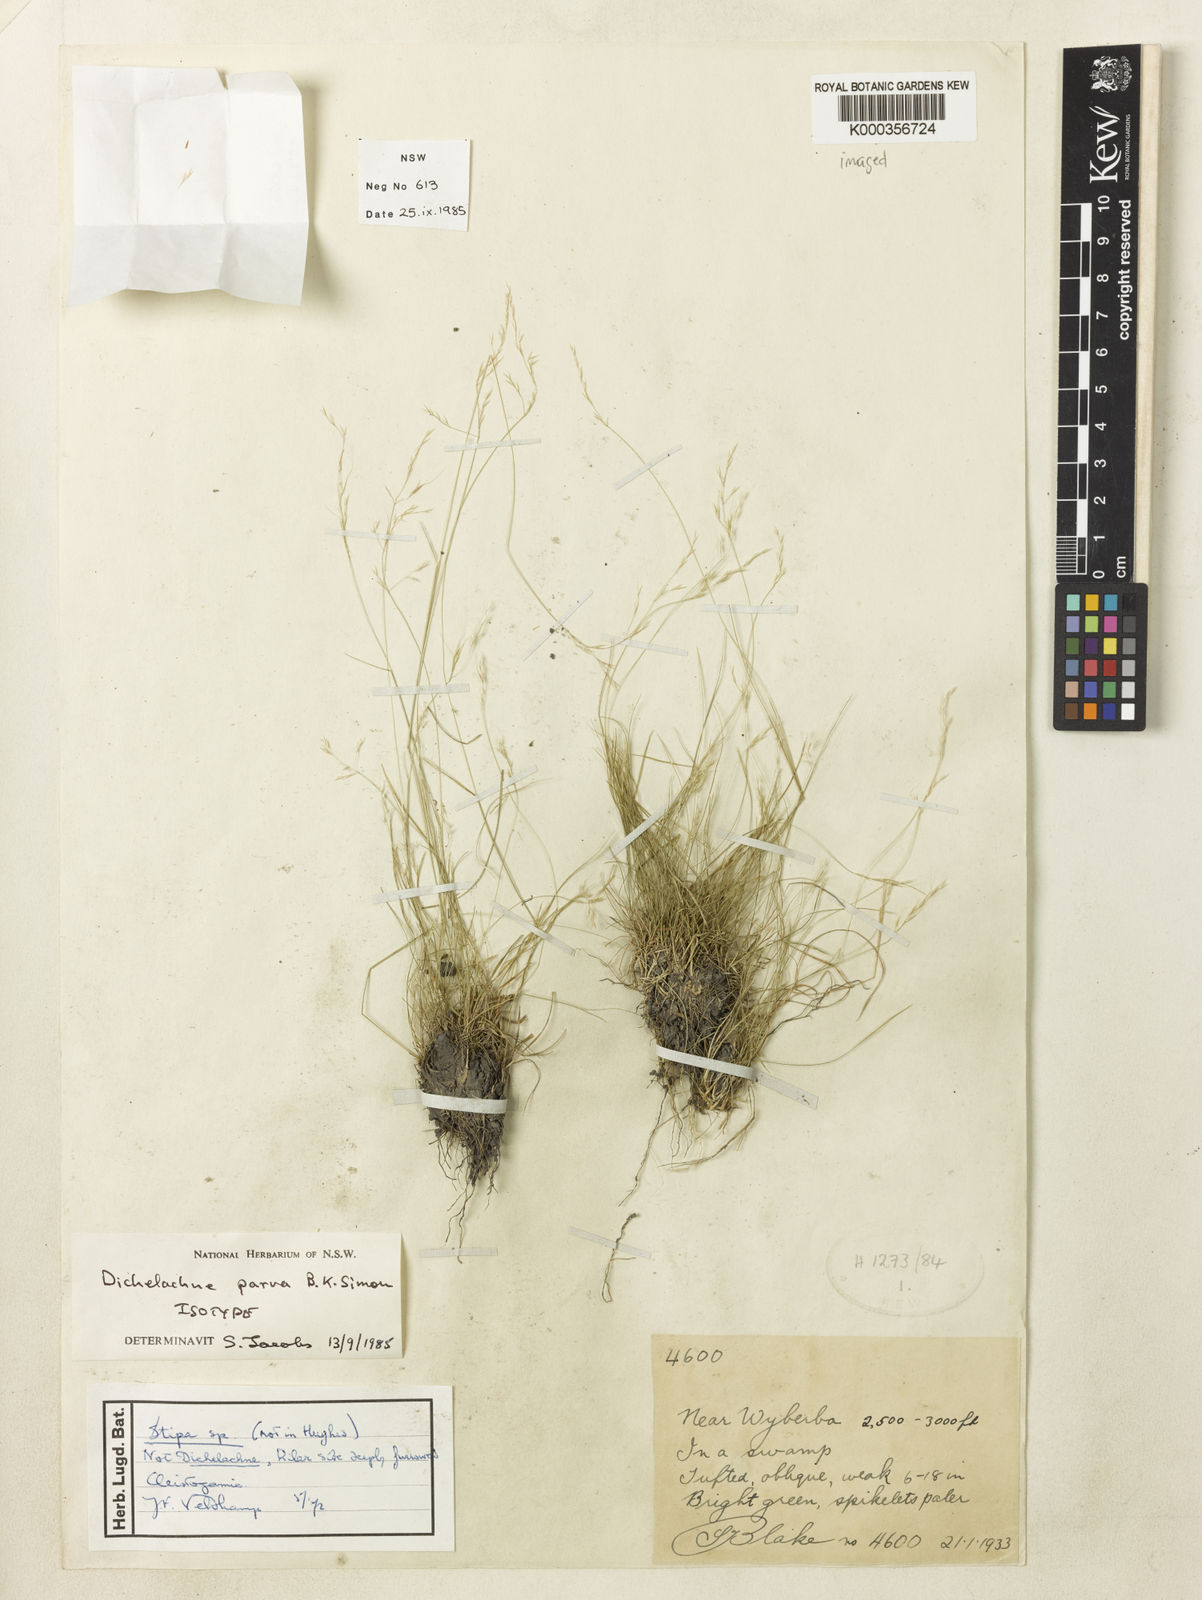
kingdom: Plantae
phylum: Tracheophyta
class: Liliopsida
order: Poales
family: Poaceae
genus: Dichelachne
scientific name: Dichelachne parva
